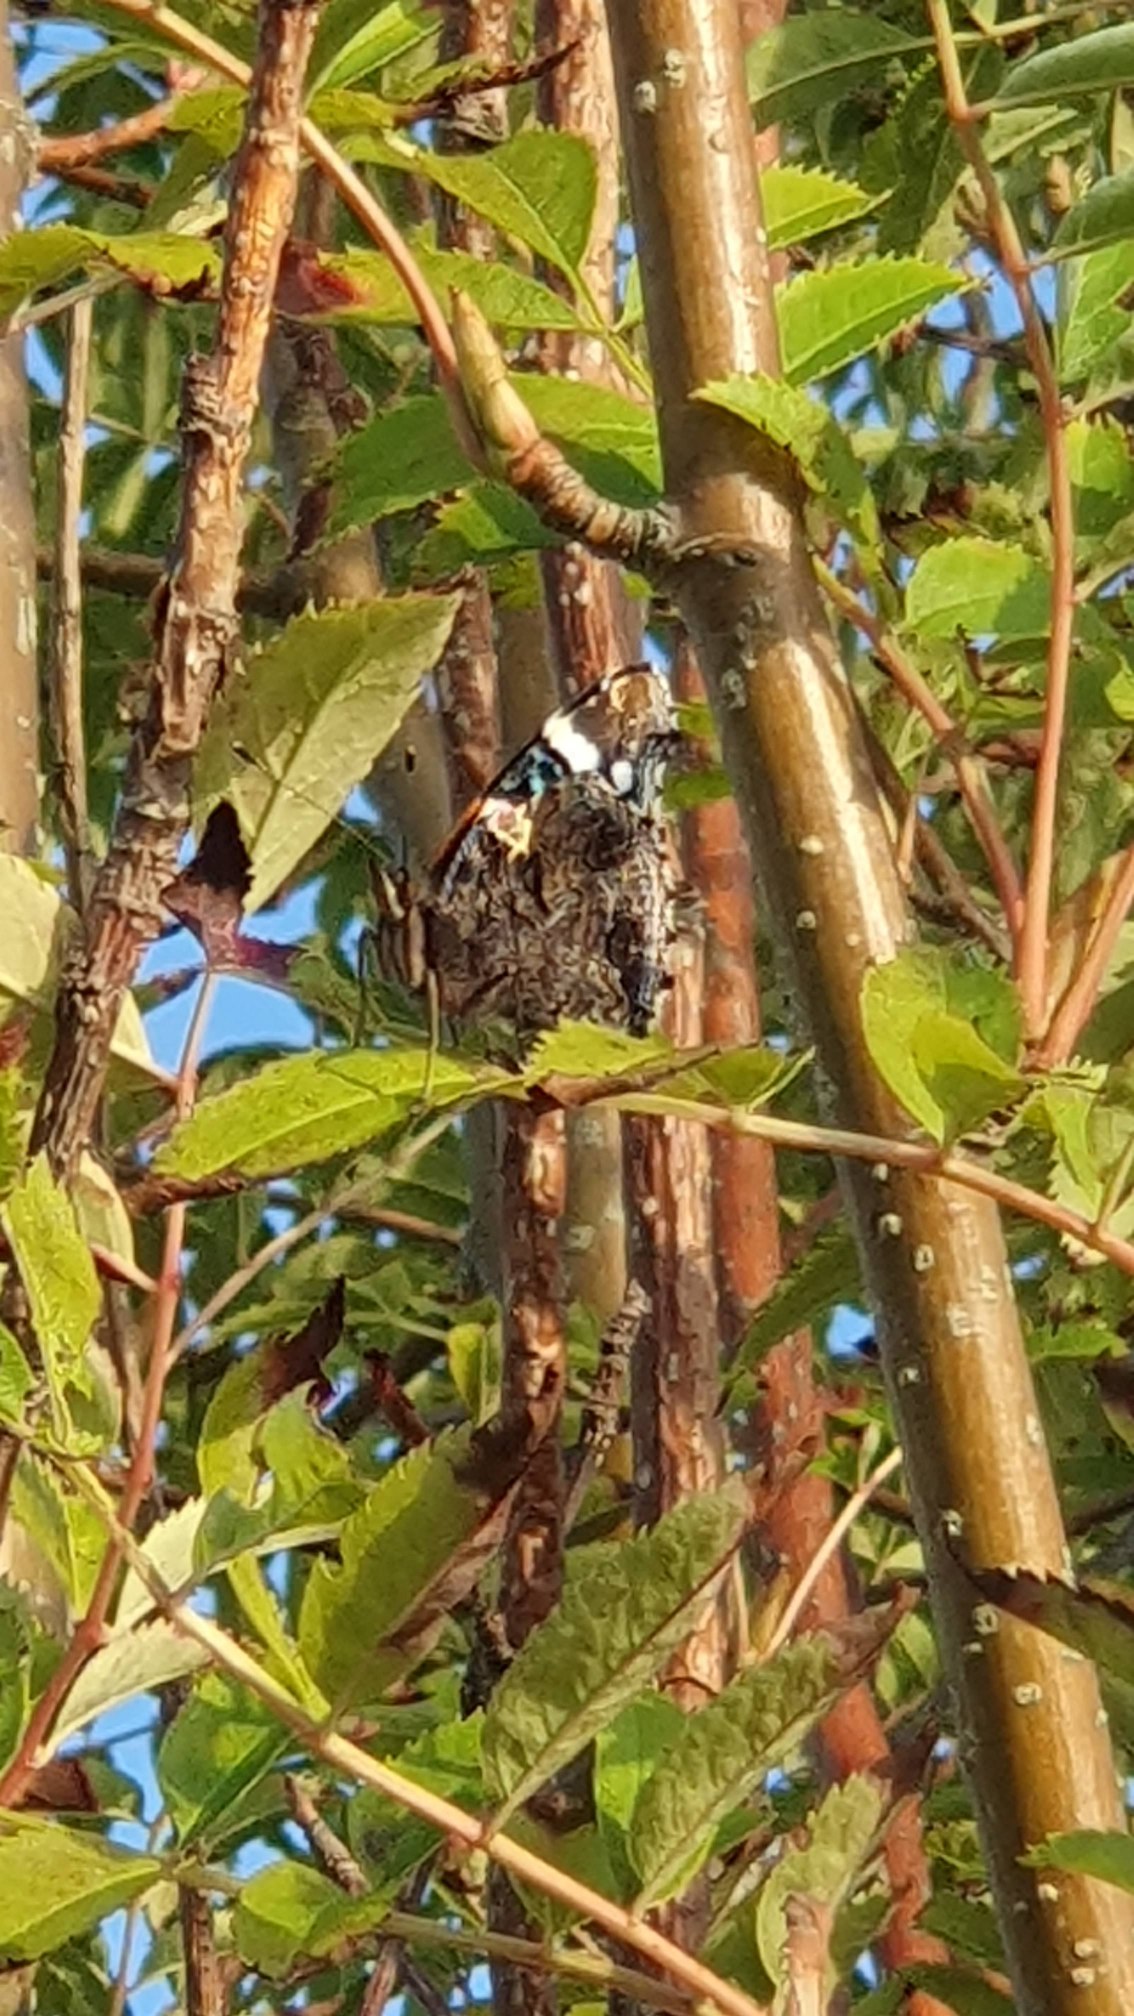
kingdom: Animalia
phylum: Arthropoda
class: Insecta
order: Lepidoptera
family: Nymphalidae
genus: Vanessa
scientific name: Vanessa atalanta
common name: Admiral
